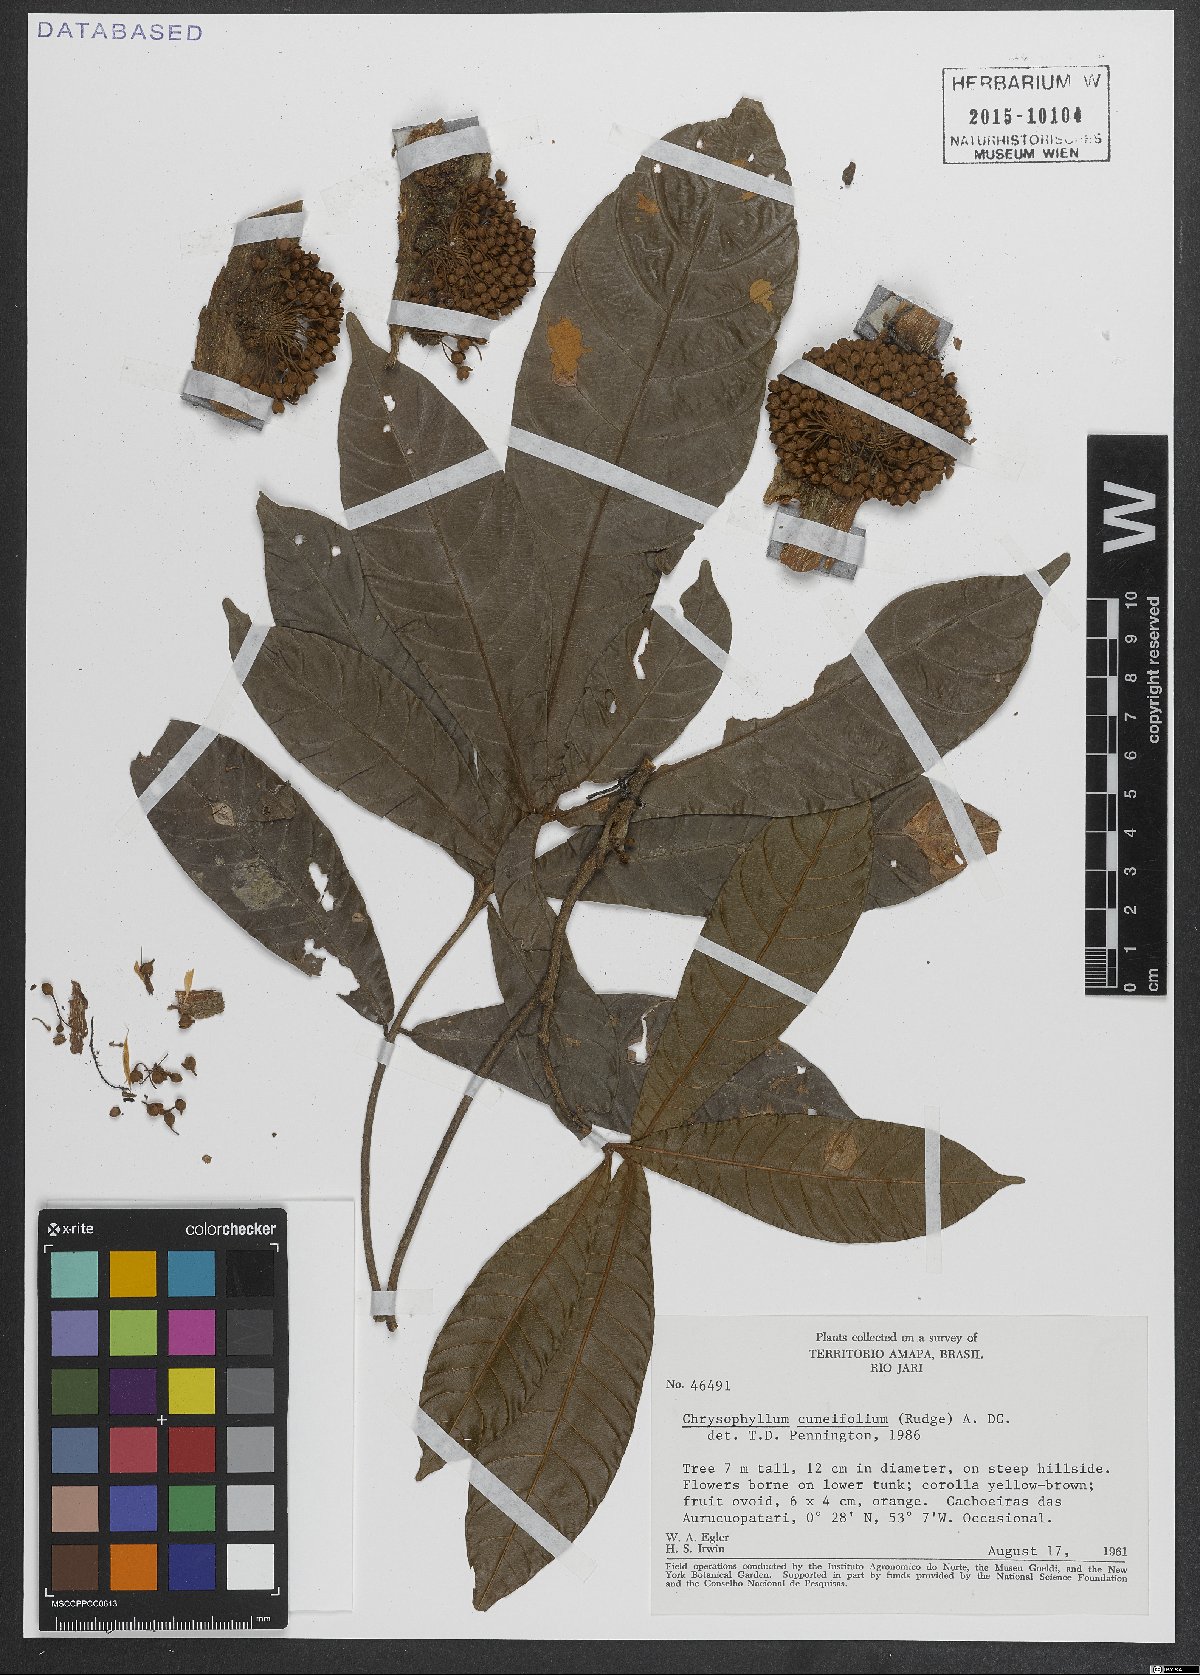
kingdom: Plantae
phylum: Tracheophyta
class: Magnoliopsida
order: Ericales
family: Sapotaceae
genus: Chrysophyllum
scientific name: Chrysophyllum cuneifolium
